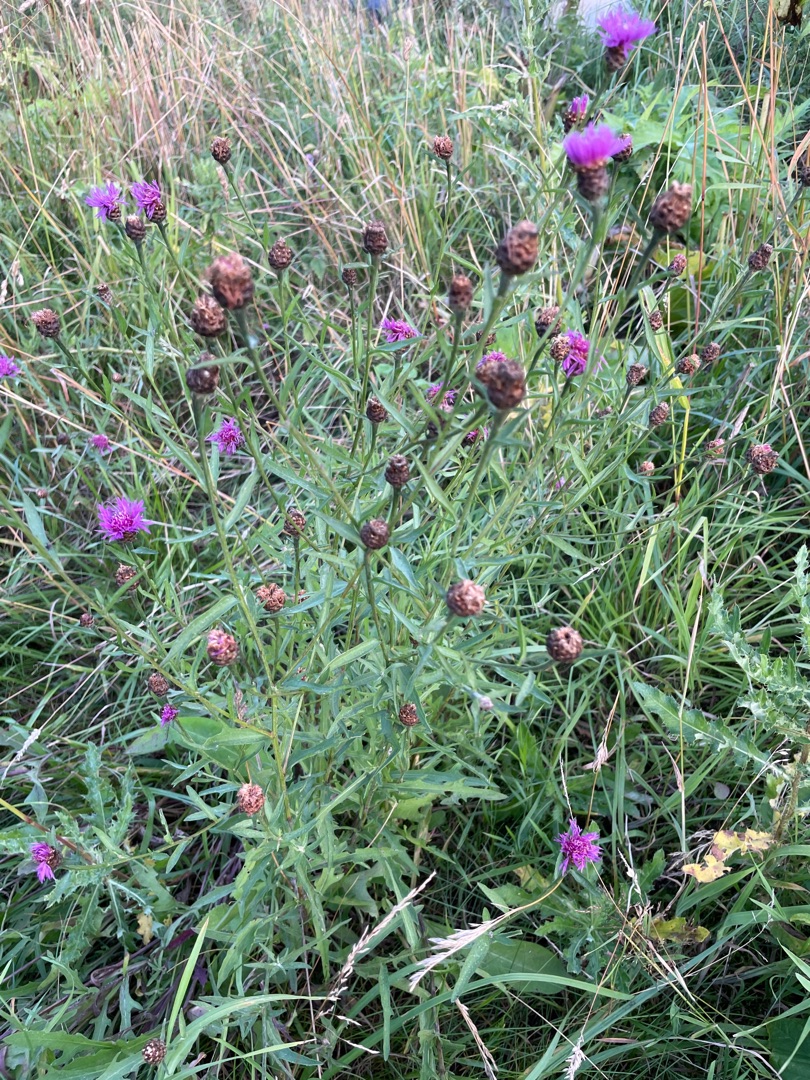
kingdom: Plantae
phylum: Tracheophyta
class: Magnoliopsida
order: Asterales
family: Asteraceae
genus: Centaurea
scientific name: Centaurea jacea
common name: Almindelig knopurt
